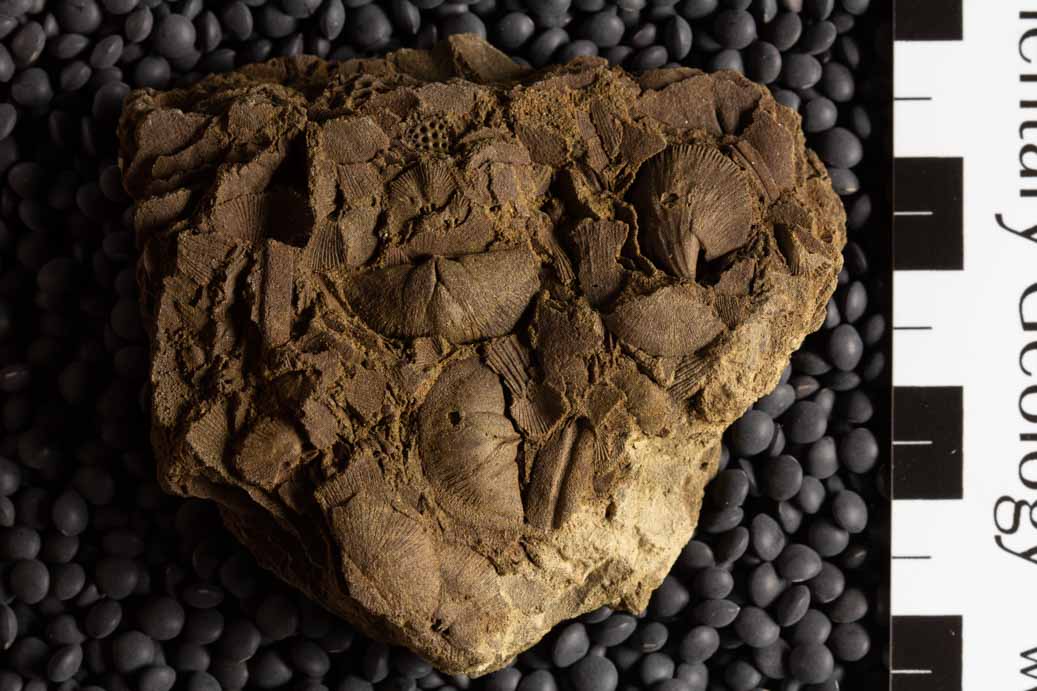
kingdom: Animalia
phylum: Brachiopoda
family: Sowerbyellidae
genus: Sowerbyella
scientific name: Sowerbyella Leptaena sericea
